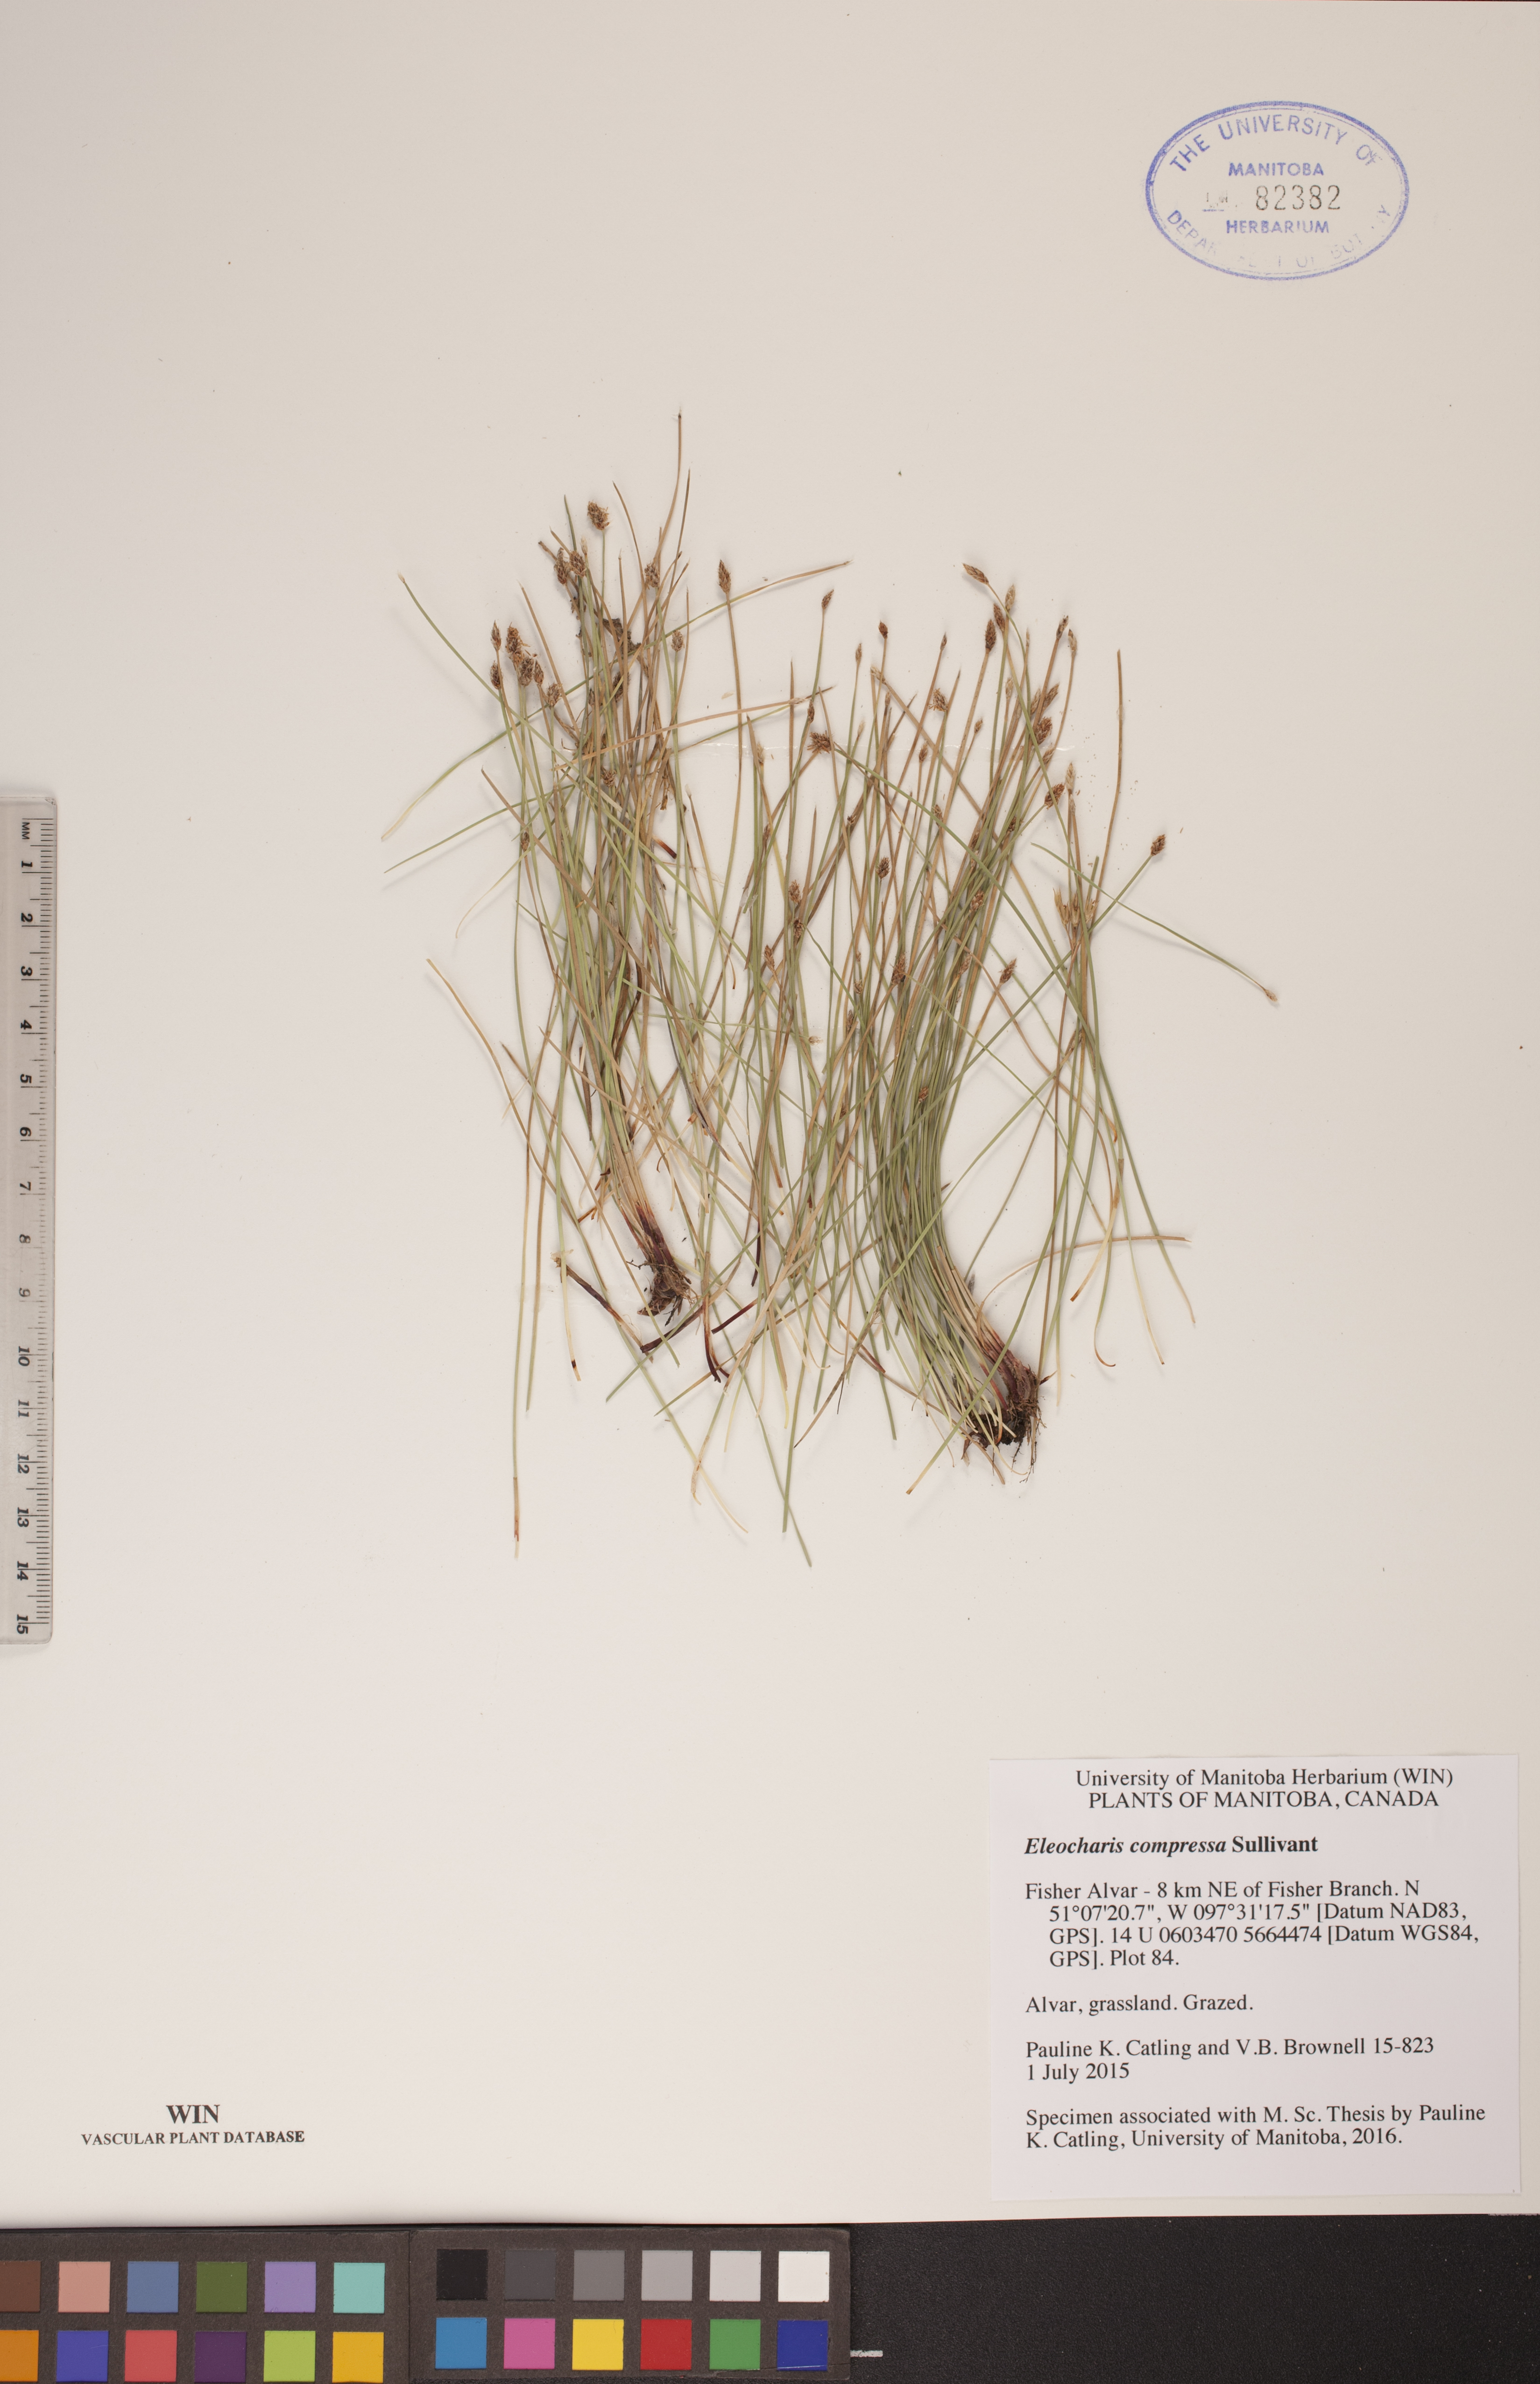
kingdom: Plantae
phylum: Tracheophyta
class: Liliopsida
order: Poales
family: Cyperaceae
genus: Eleocharis
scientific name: Eleocharis compressa
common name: Flat-stem spike-rush
